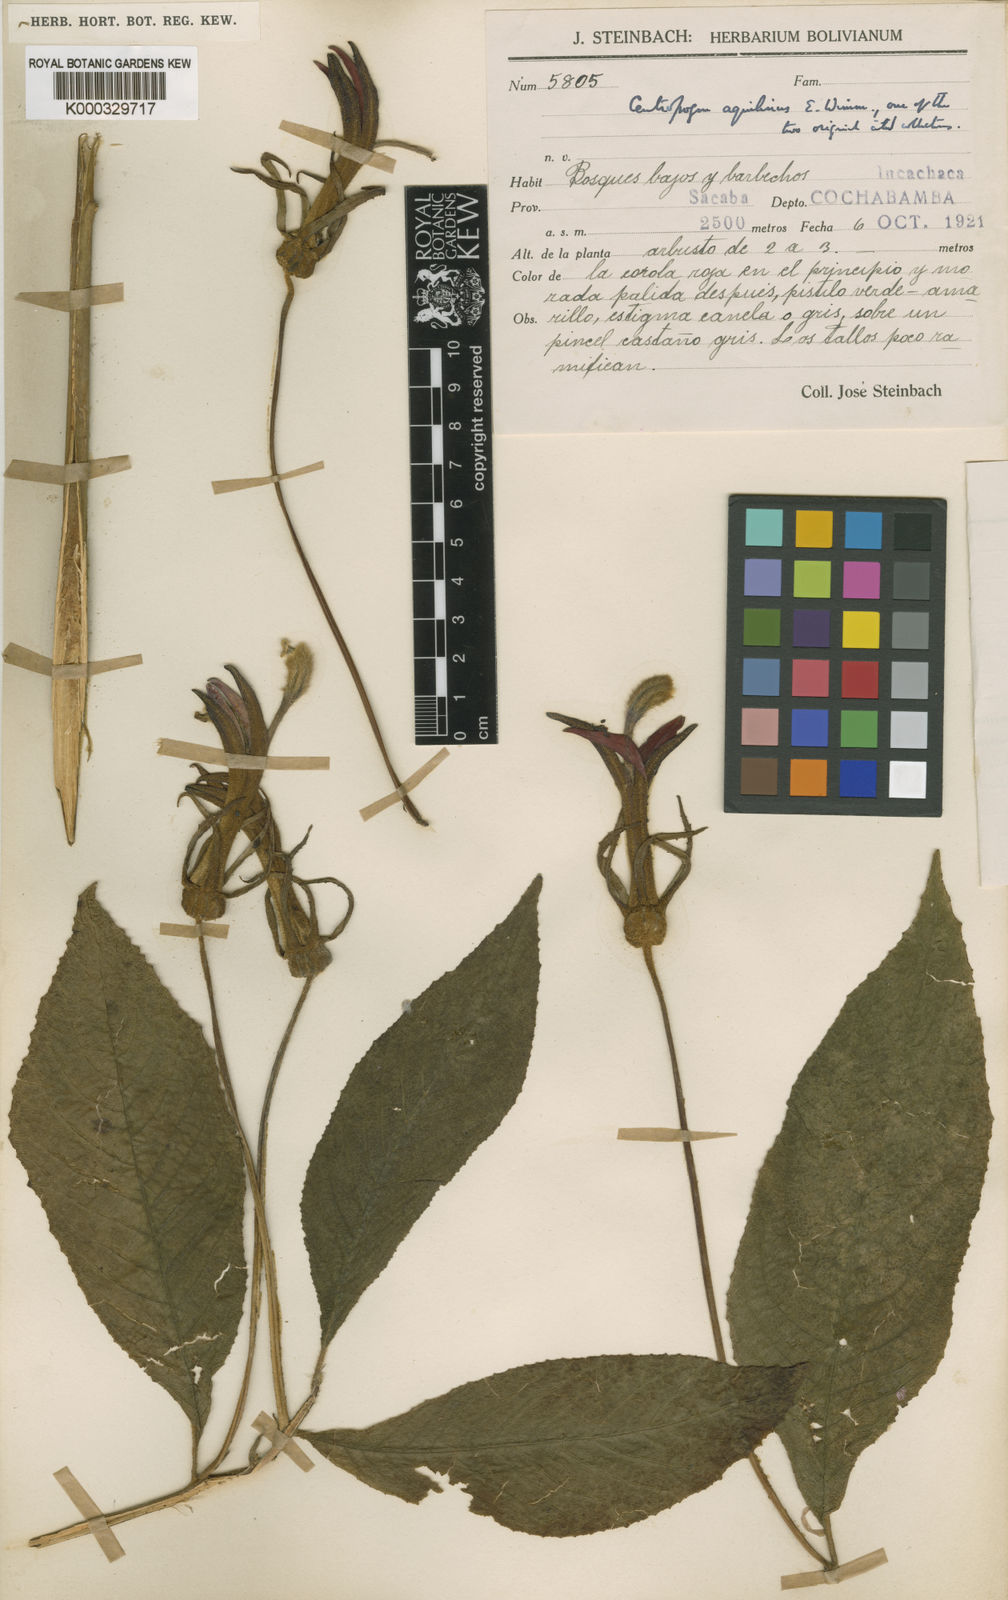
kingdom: Plantae
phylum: Tracheophyta
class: Magnoliopsida
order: Asterales
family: Campanulaceae
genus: Centropogon
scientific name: Centropogon
